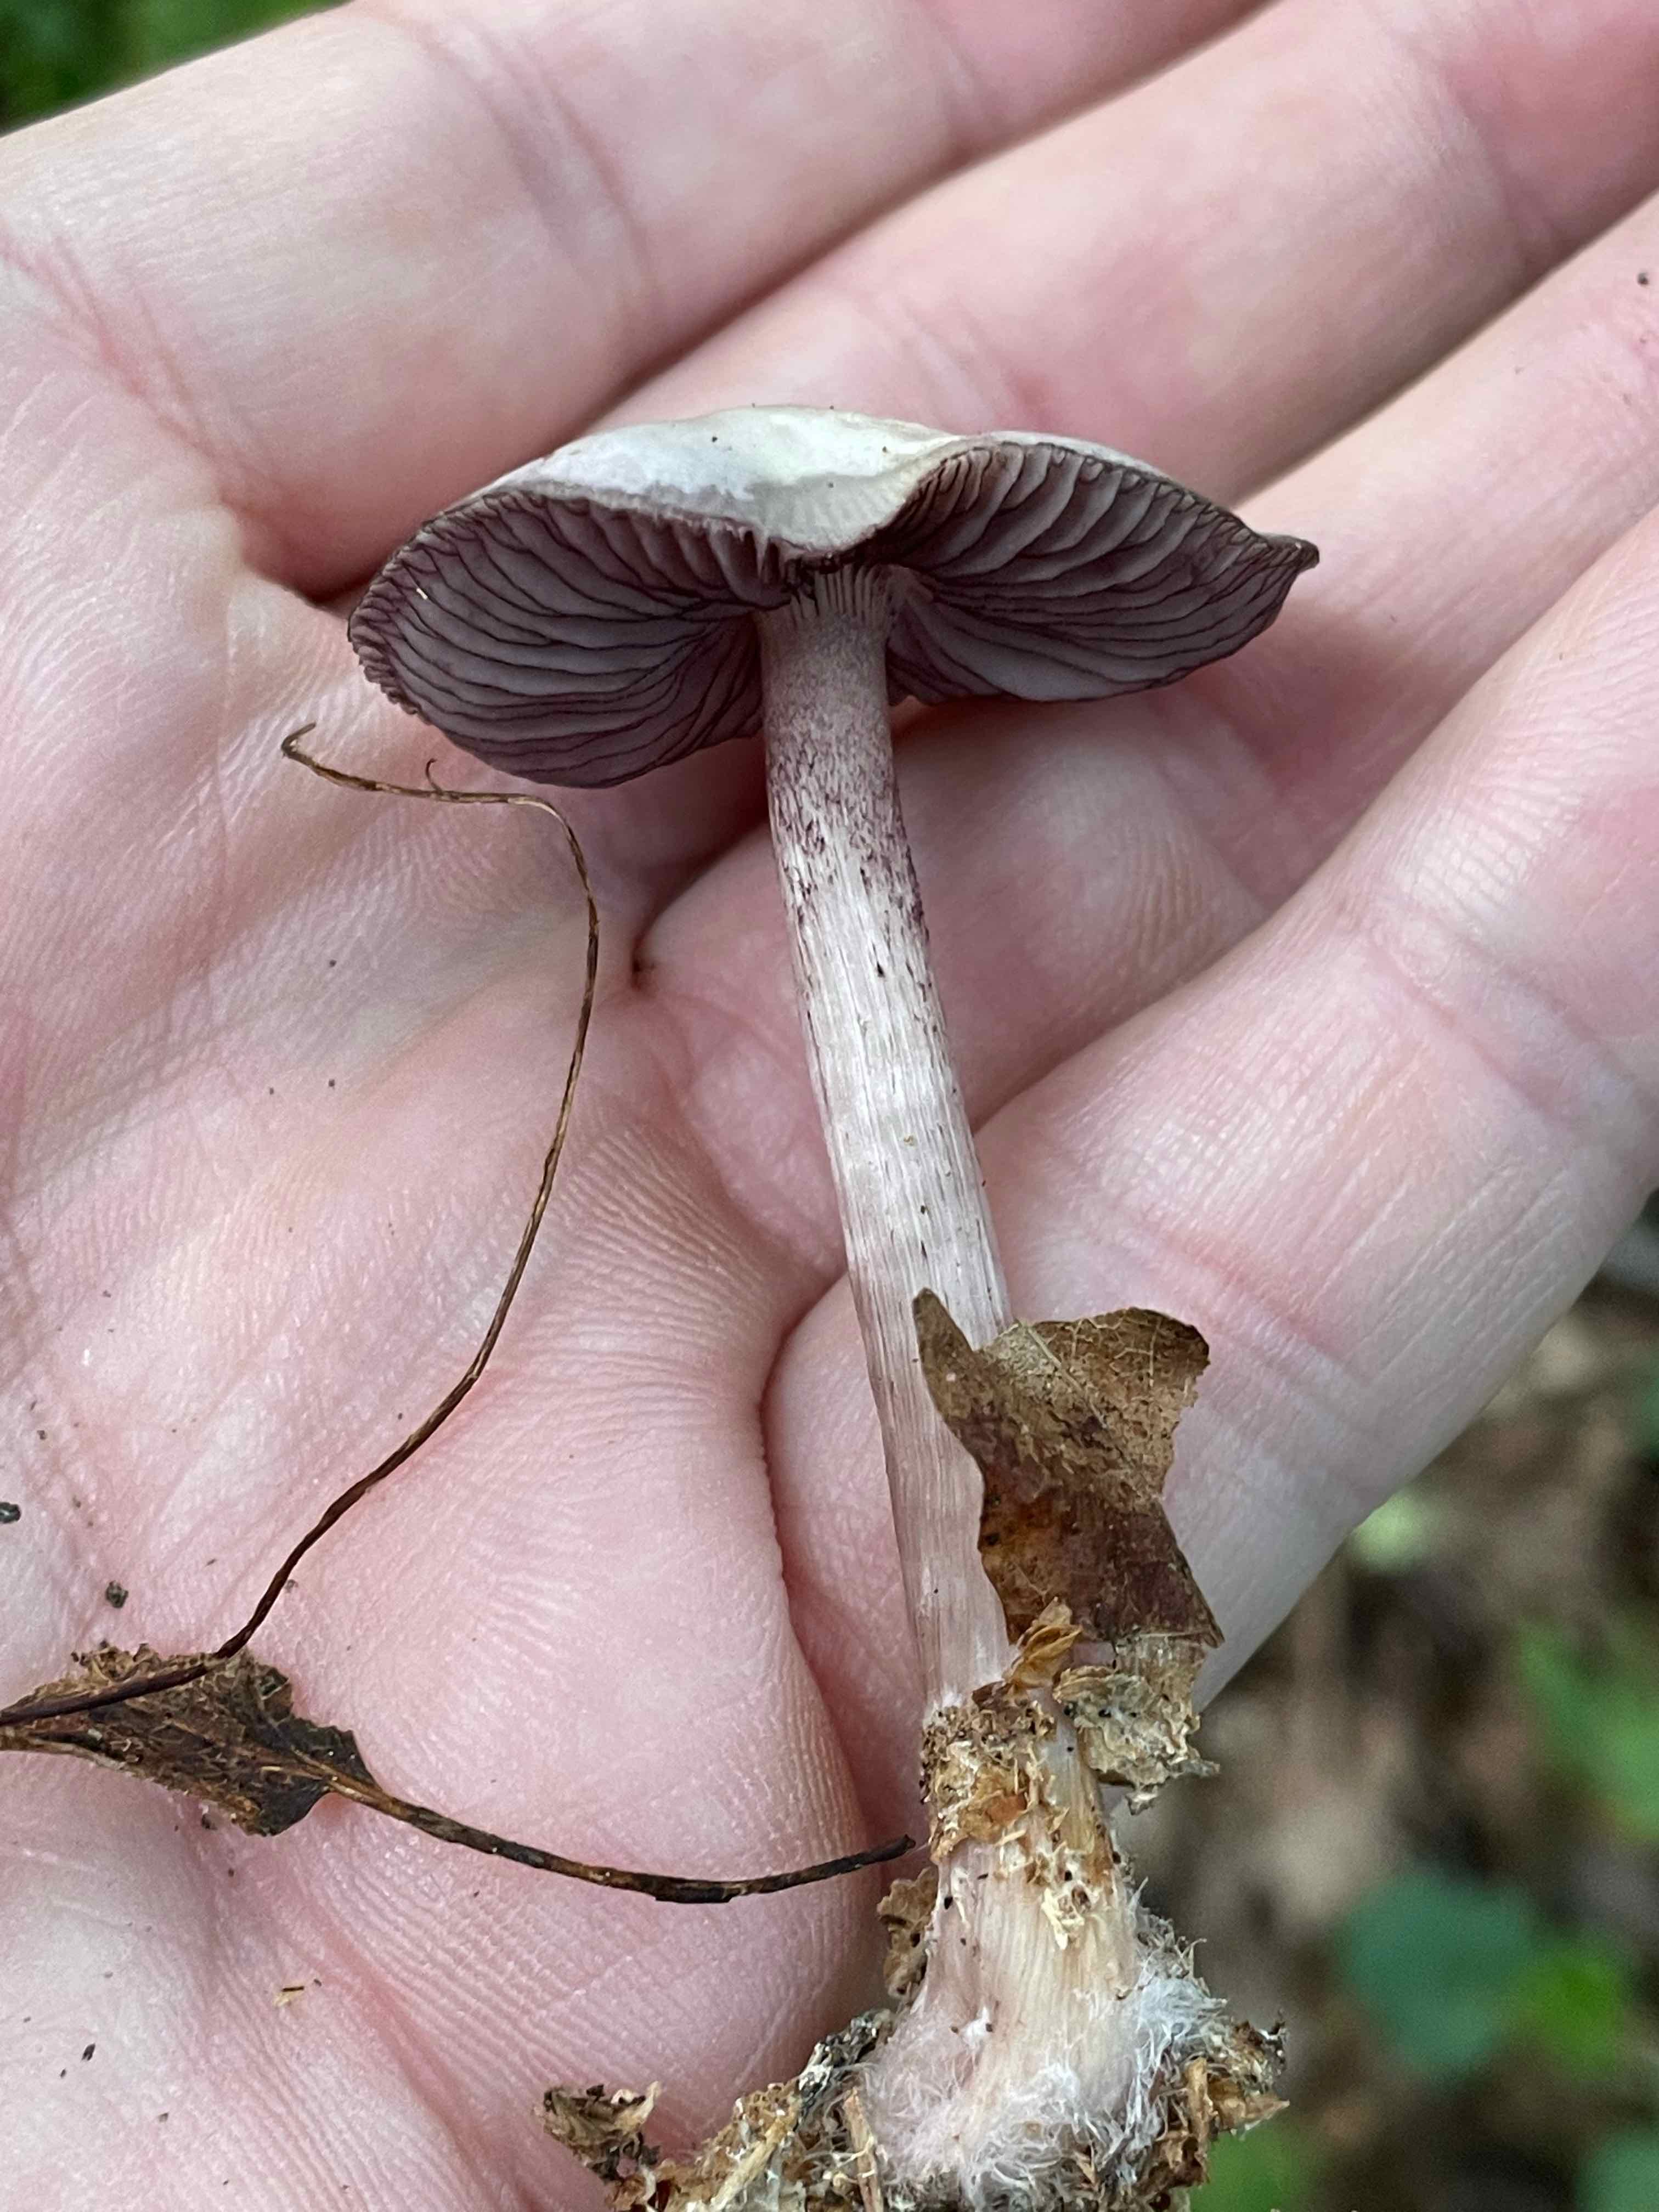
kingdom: Fungi
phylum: Basidiomycota
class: Agaricomycetes
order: Agaricales
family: Mycenaceae
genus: Mycena
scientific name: Mycena pelianthina
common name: mørkbladet huesvamp
